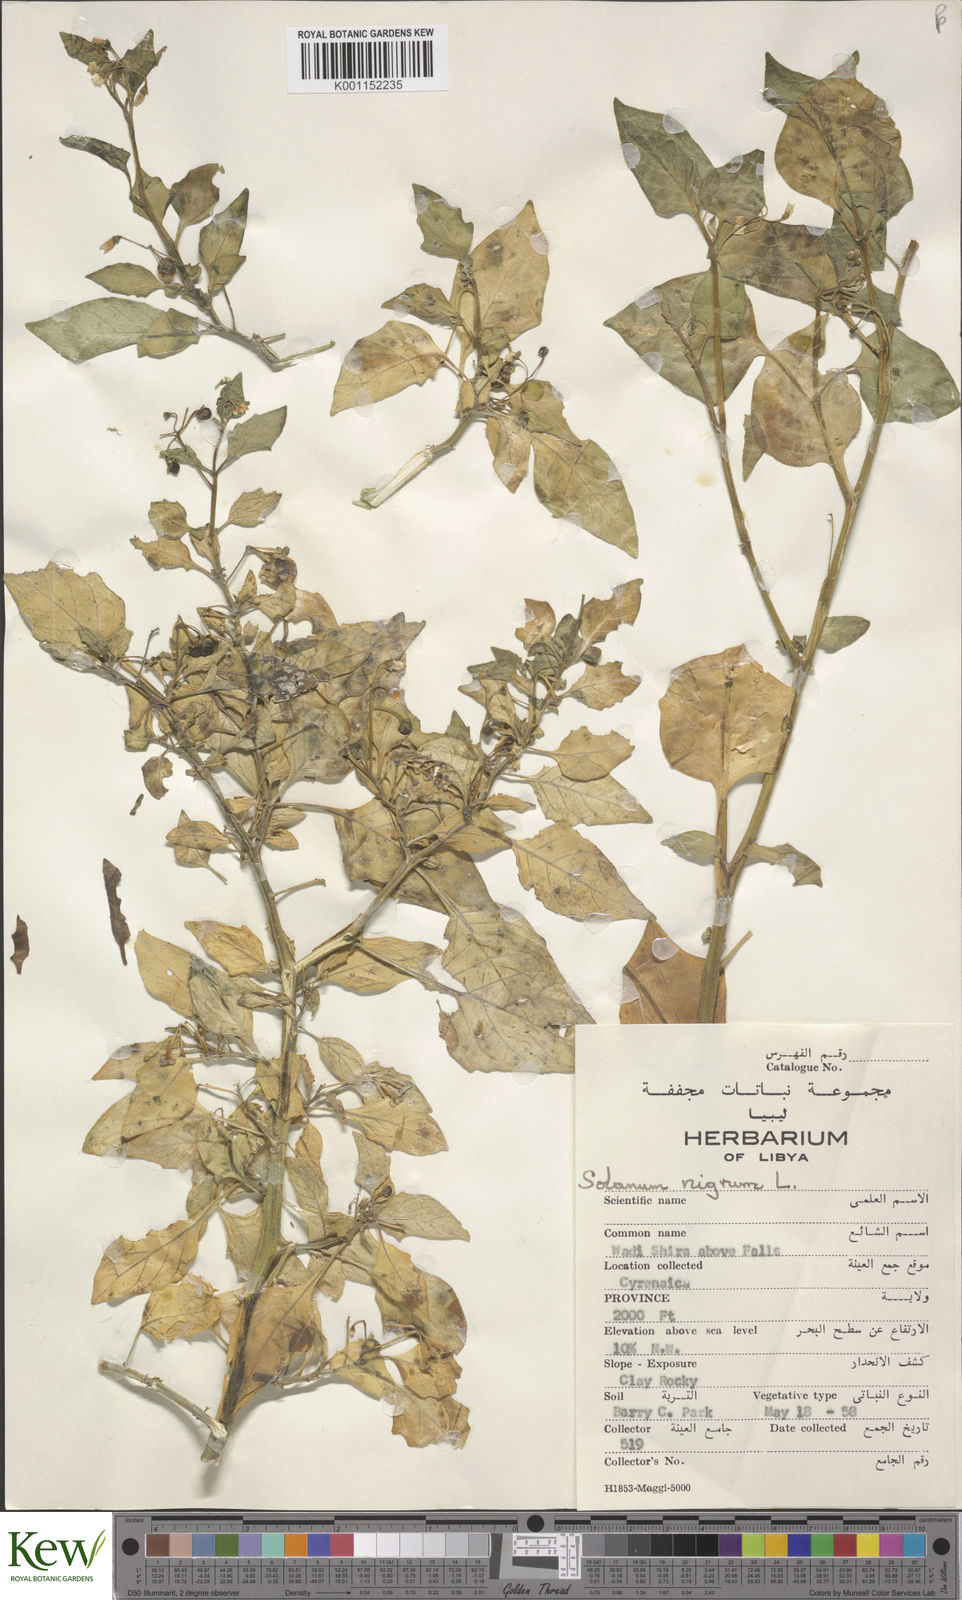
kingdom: Plantae
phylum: Tracheophyta
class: Magnoliopsida
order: Solanales
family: Solanaceae
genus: Solanum
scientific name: Solanum nigrum
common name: Black nightshade
